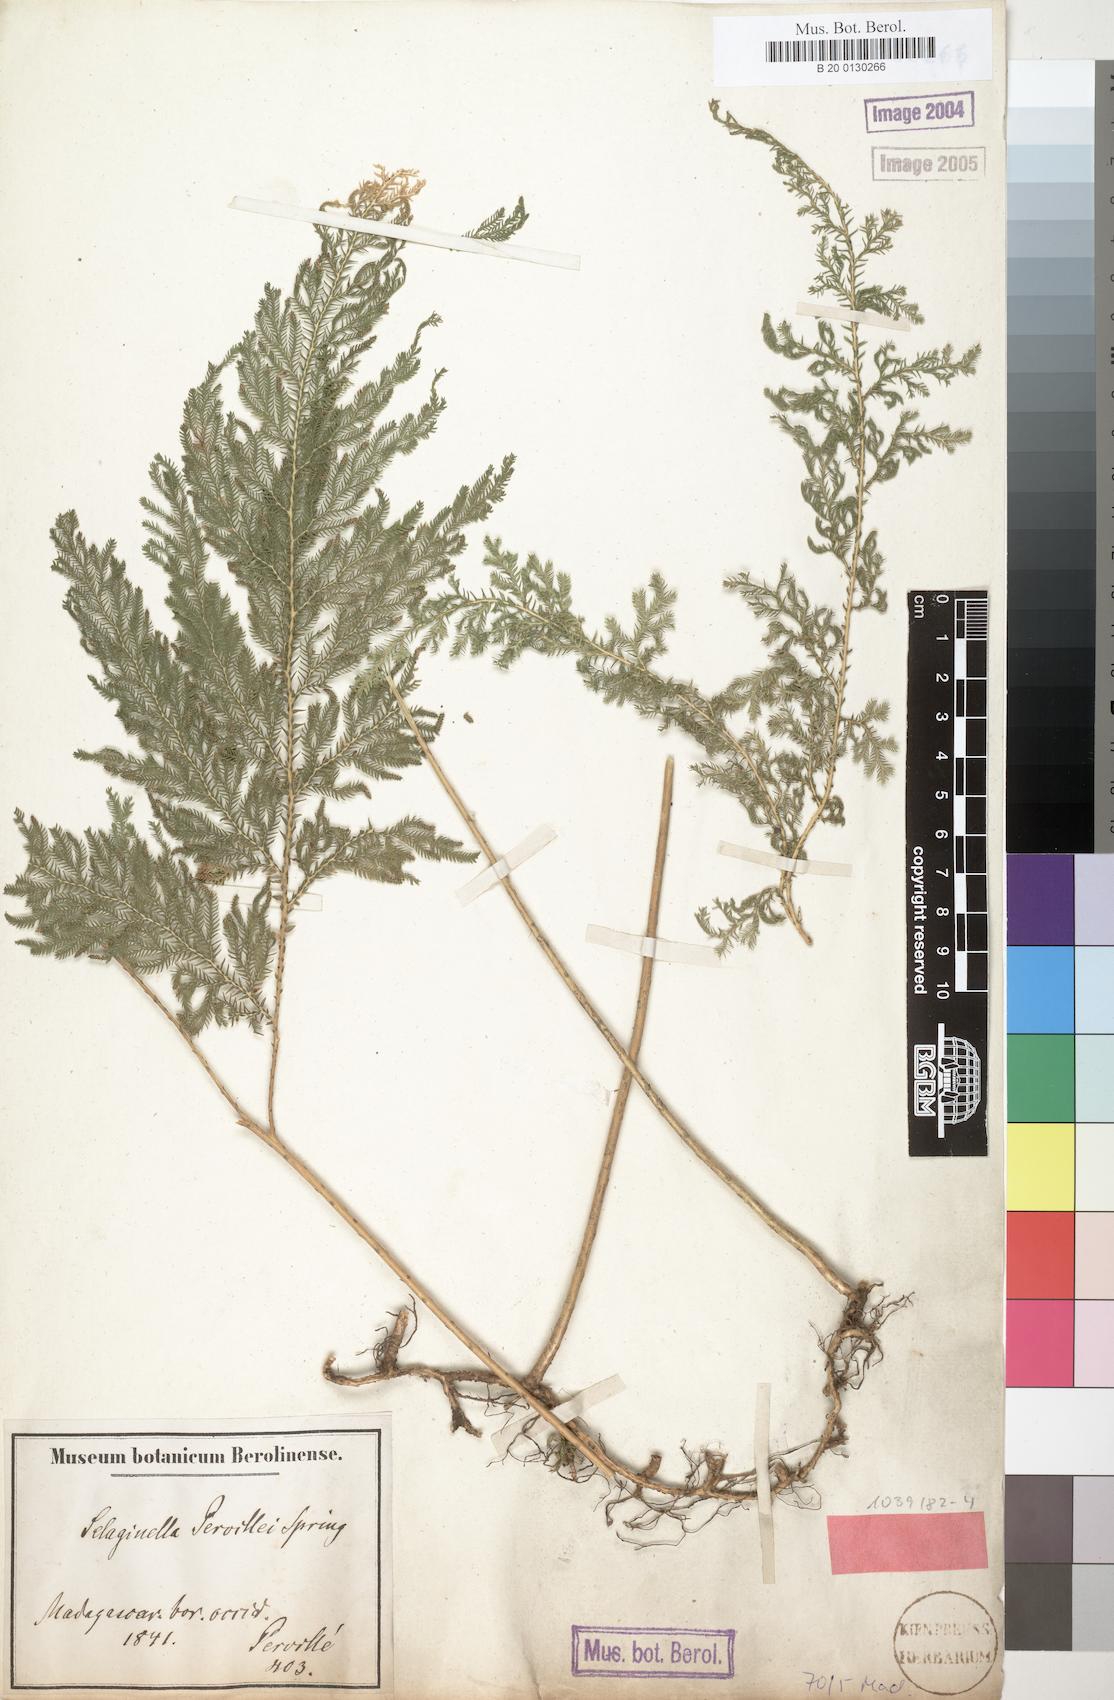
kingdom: Plantae
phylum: Tracheophyta
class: Lycopodiopsida
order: Selaginellales
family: Selaginellaceae
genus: Selaginella
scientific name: Selaginella pervillei
